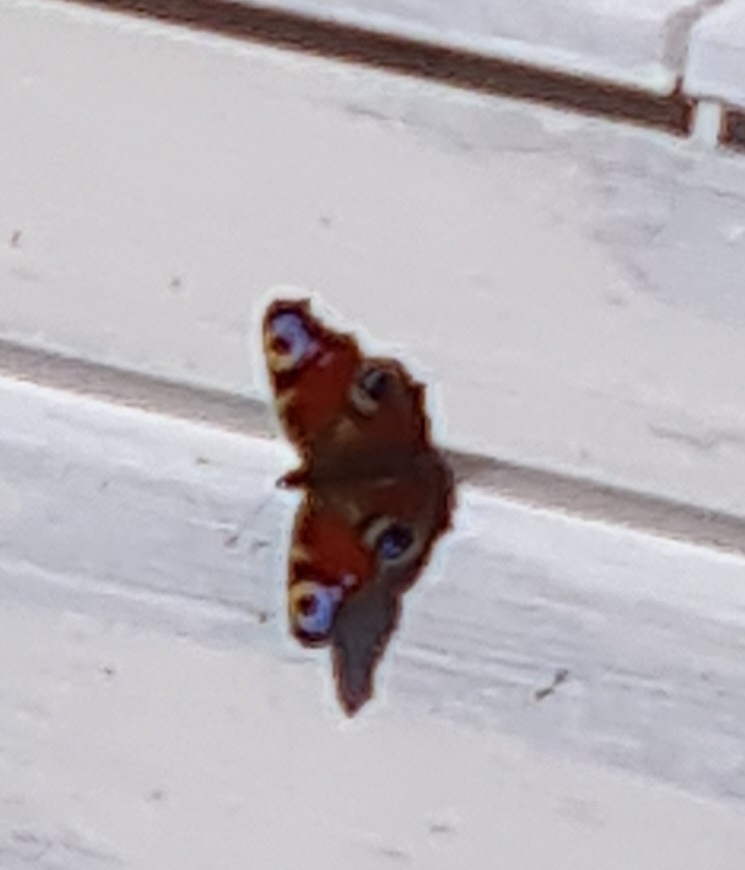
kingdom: Animalia
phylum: Arthropoda
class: Insecta
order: Lepidoptera
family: Nymphalidae
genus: Aglais
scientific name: Aglais io
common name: Dagpåfugleøje
